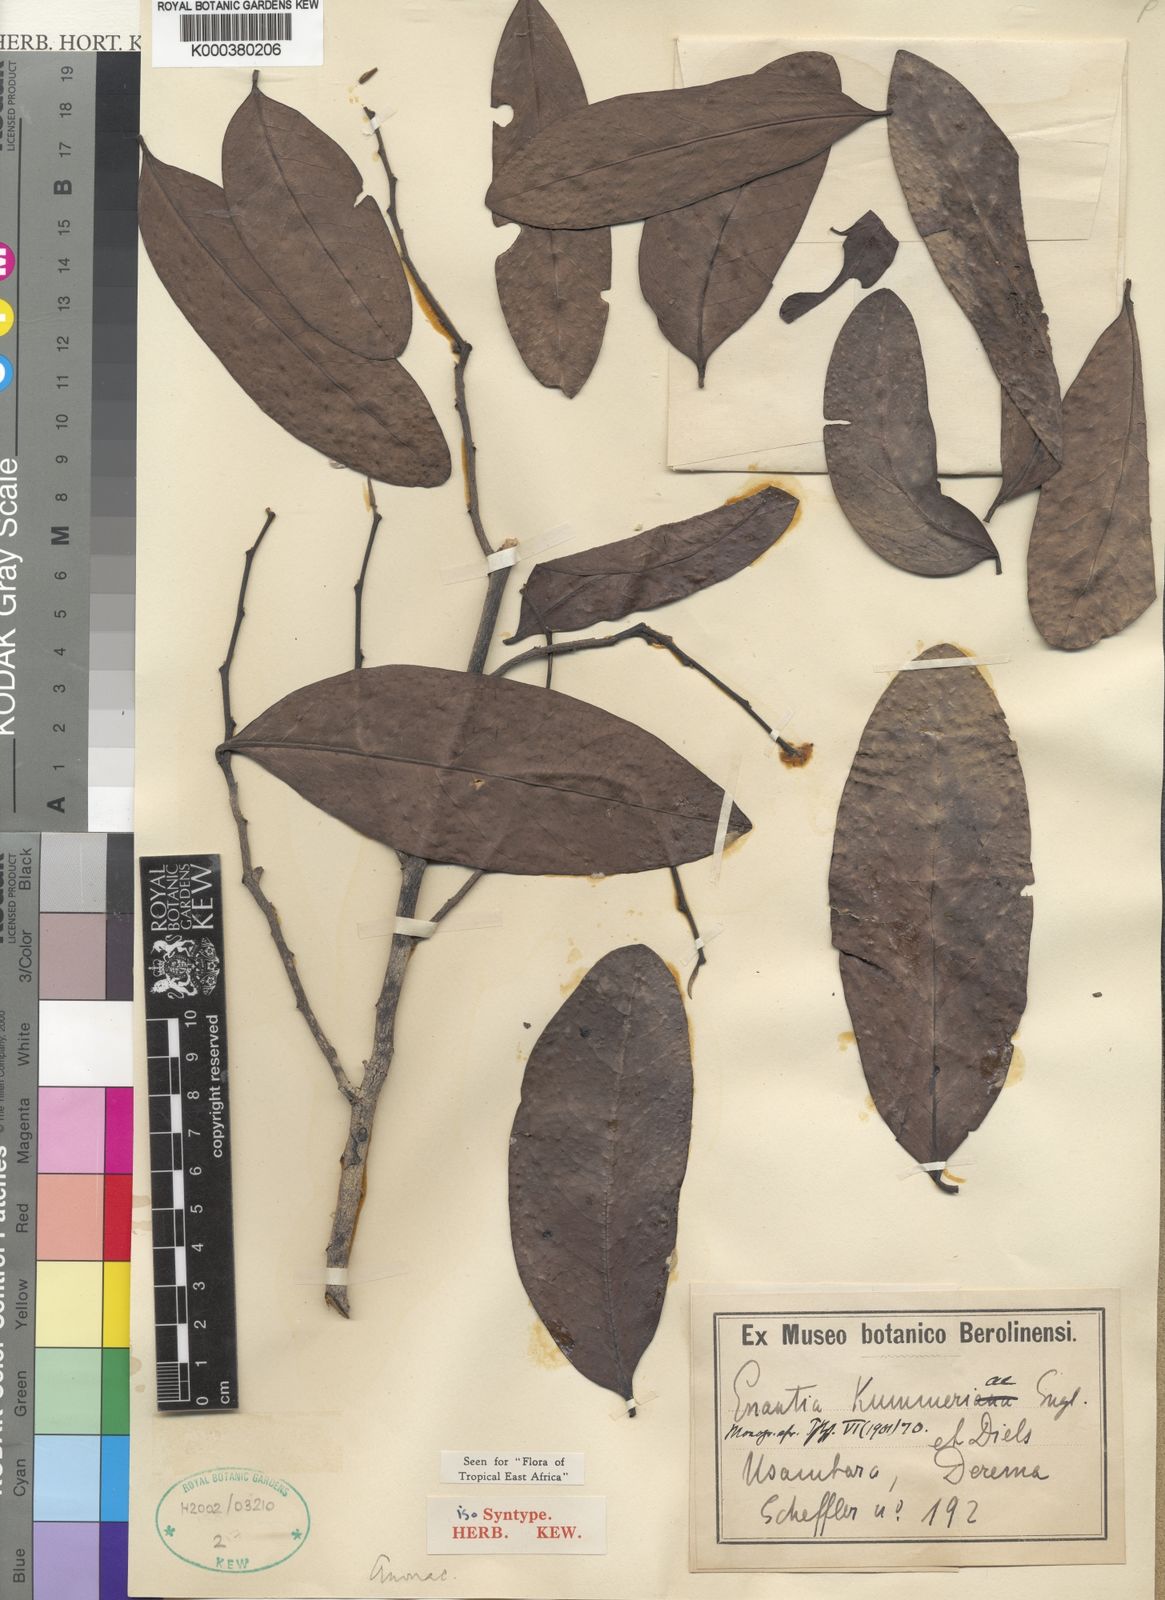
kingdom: Plantae
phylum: Tracheophyta
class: Magnoliopsida
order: Magnoliales
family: Annonaceae
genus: Annickia
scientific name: Annickia kummerae
